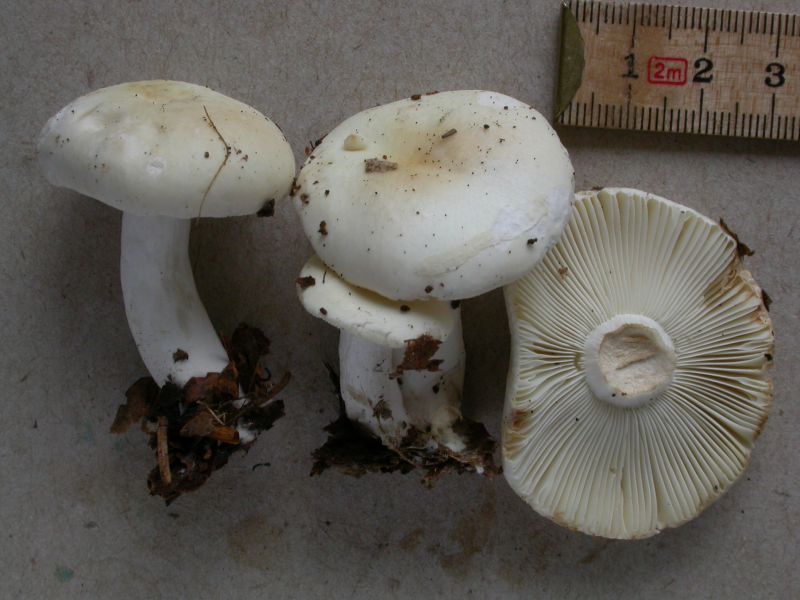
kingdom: Fungi
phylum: Basidiomycota
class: Agaricomycetes
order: Russulales
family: Russulaceae
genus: Russula
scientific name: Russula fragilis
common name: Fragile brittlegill
